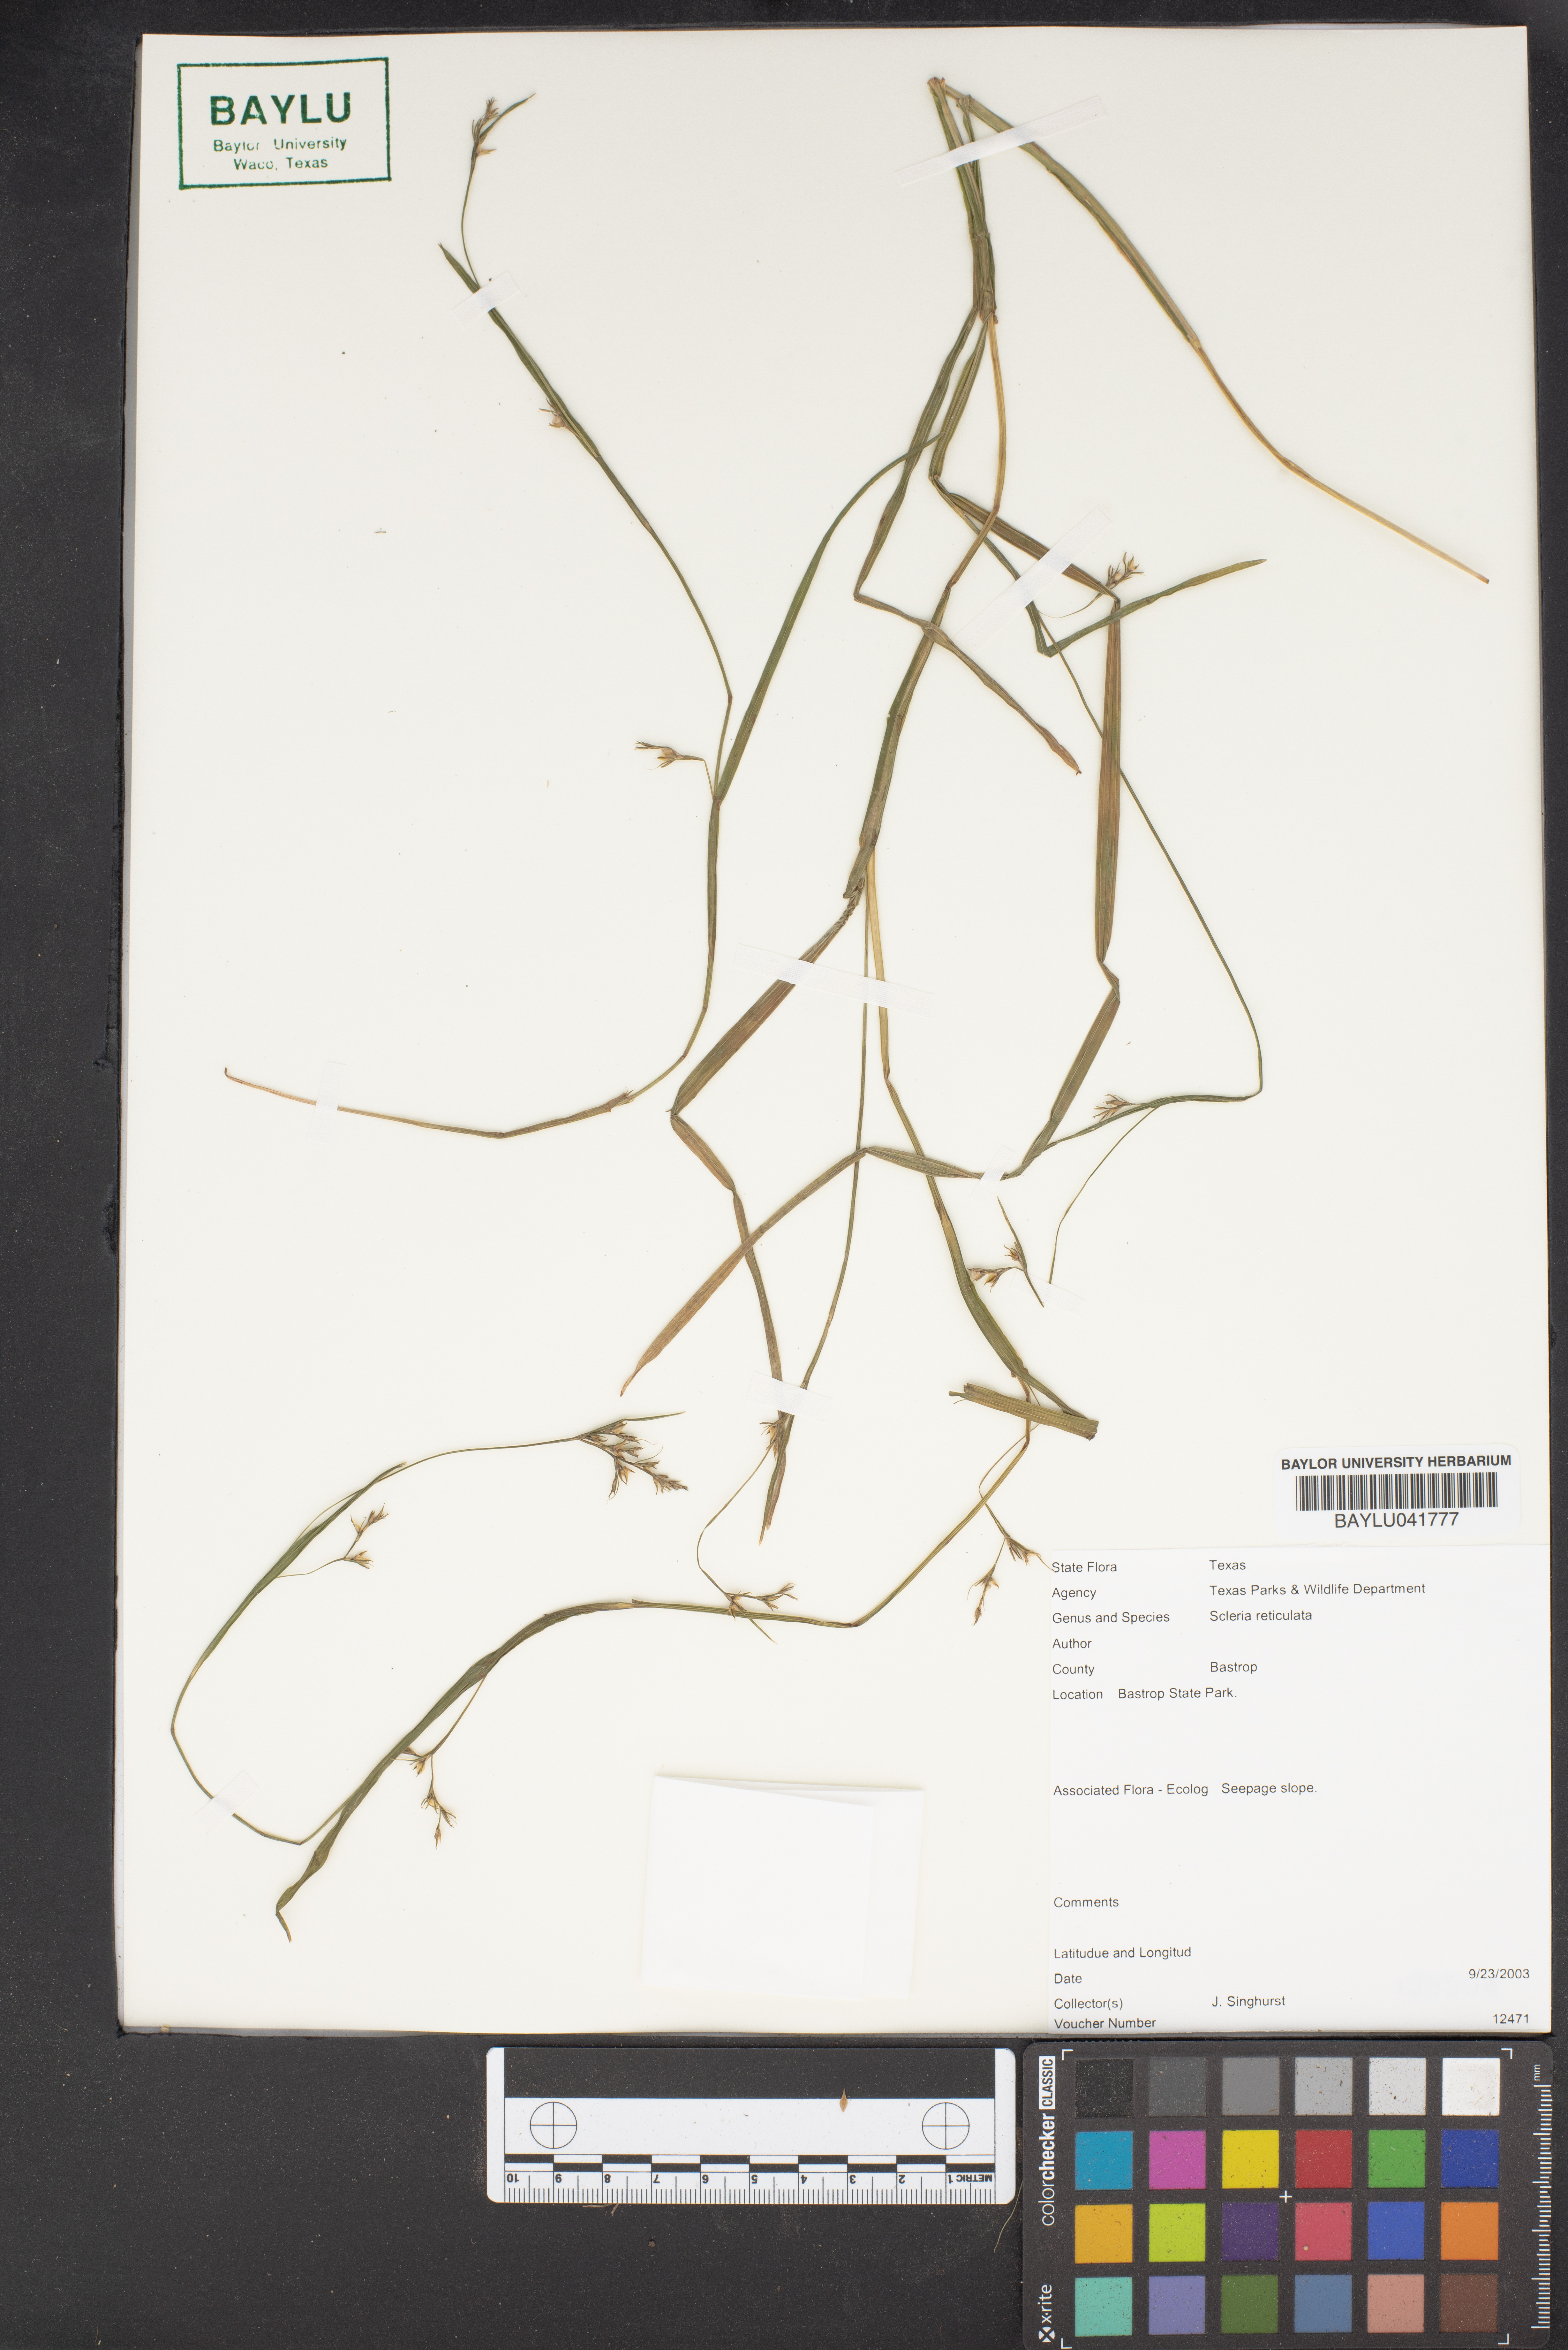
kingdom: Plantae
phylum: Tracheophyta
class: Liliopsida
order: Poales
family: Poaceae
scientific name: Poaceae
